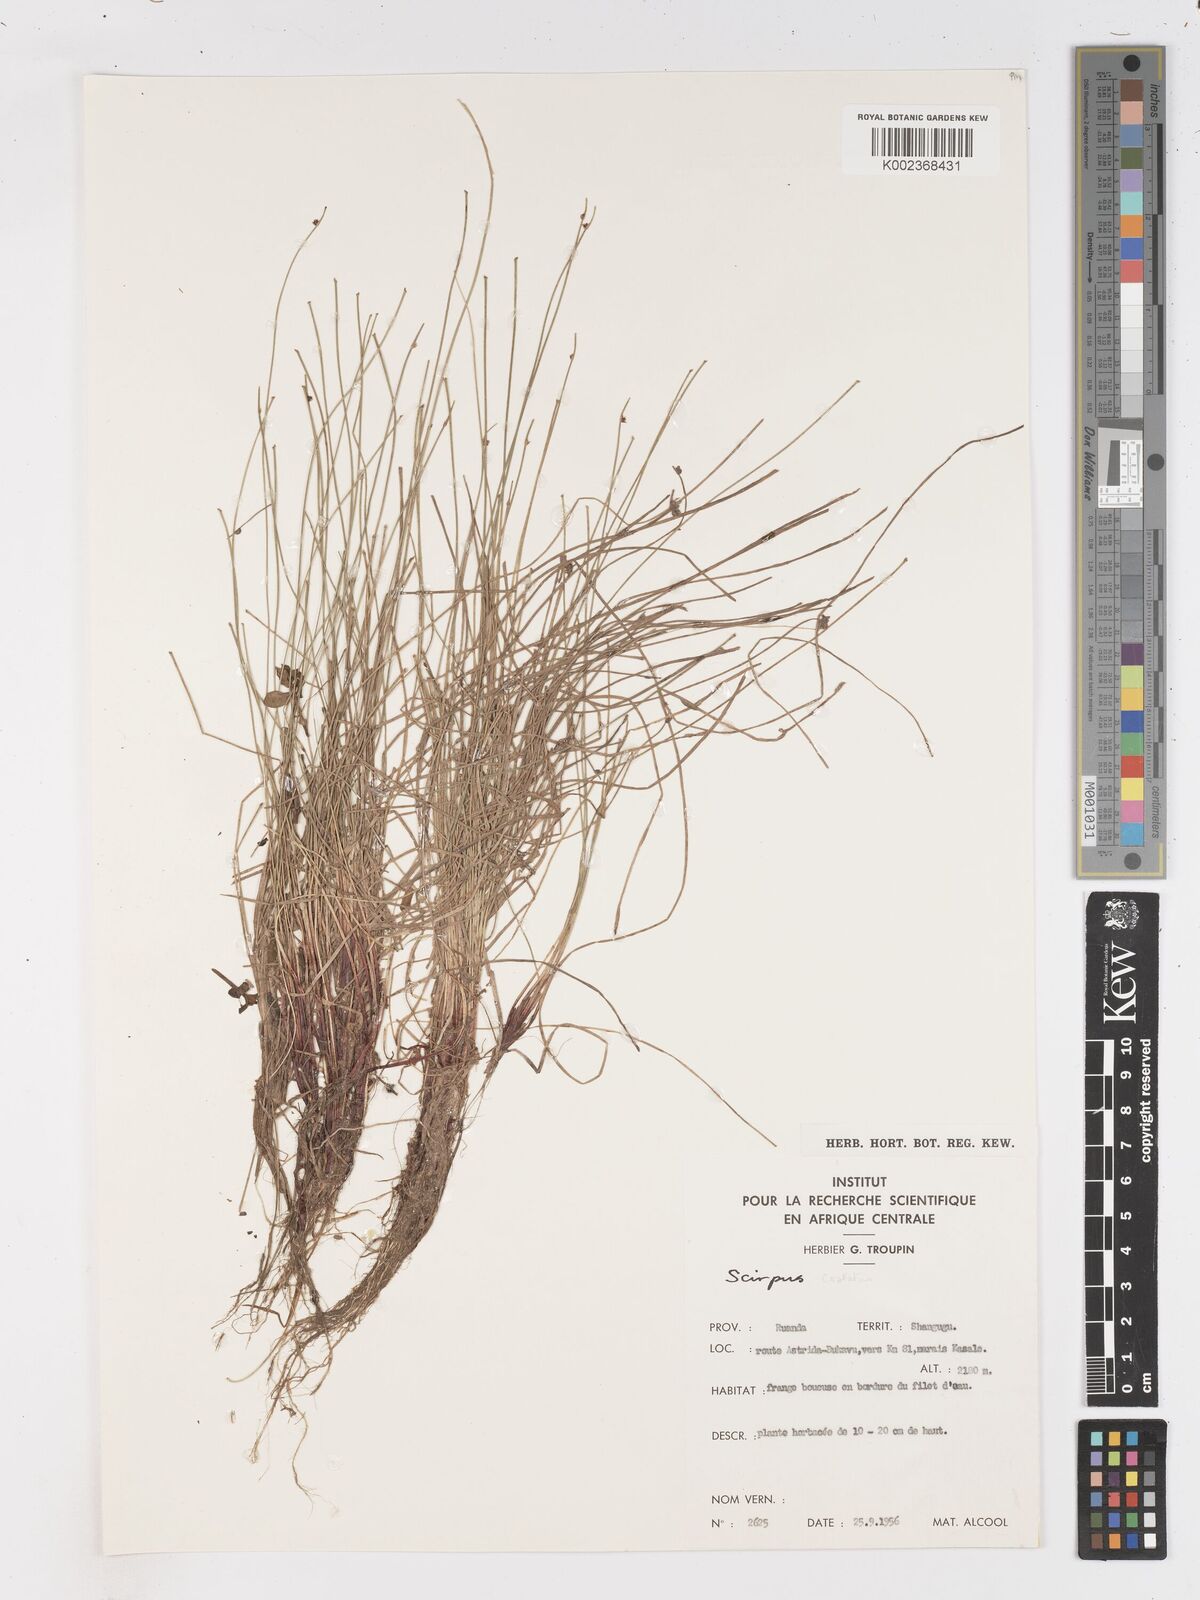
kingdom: Plantae
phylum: Tracheophyta
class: Liliopsida
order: Poales
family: Cyperaceae
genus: Isolepis
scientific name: Isolepis costata
